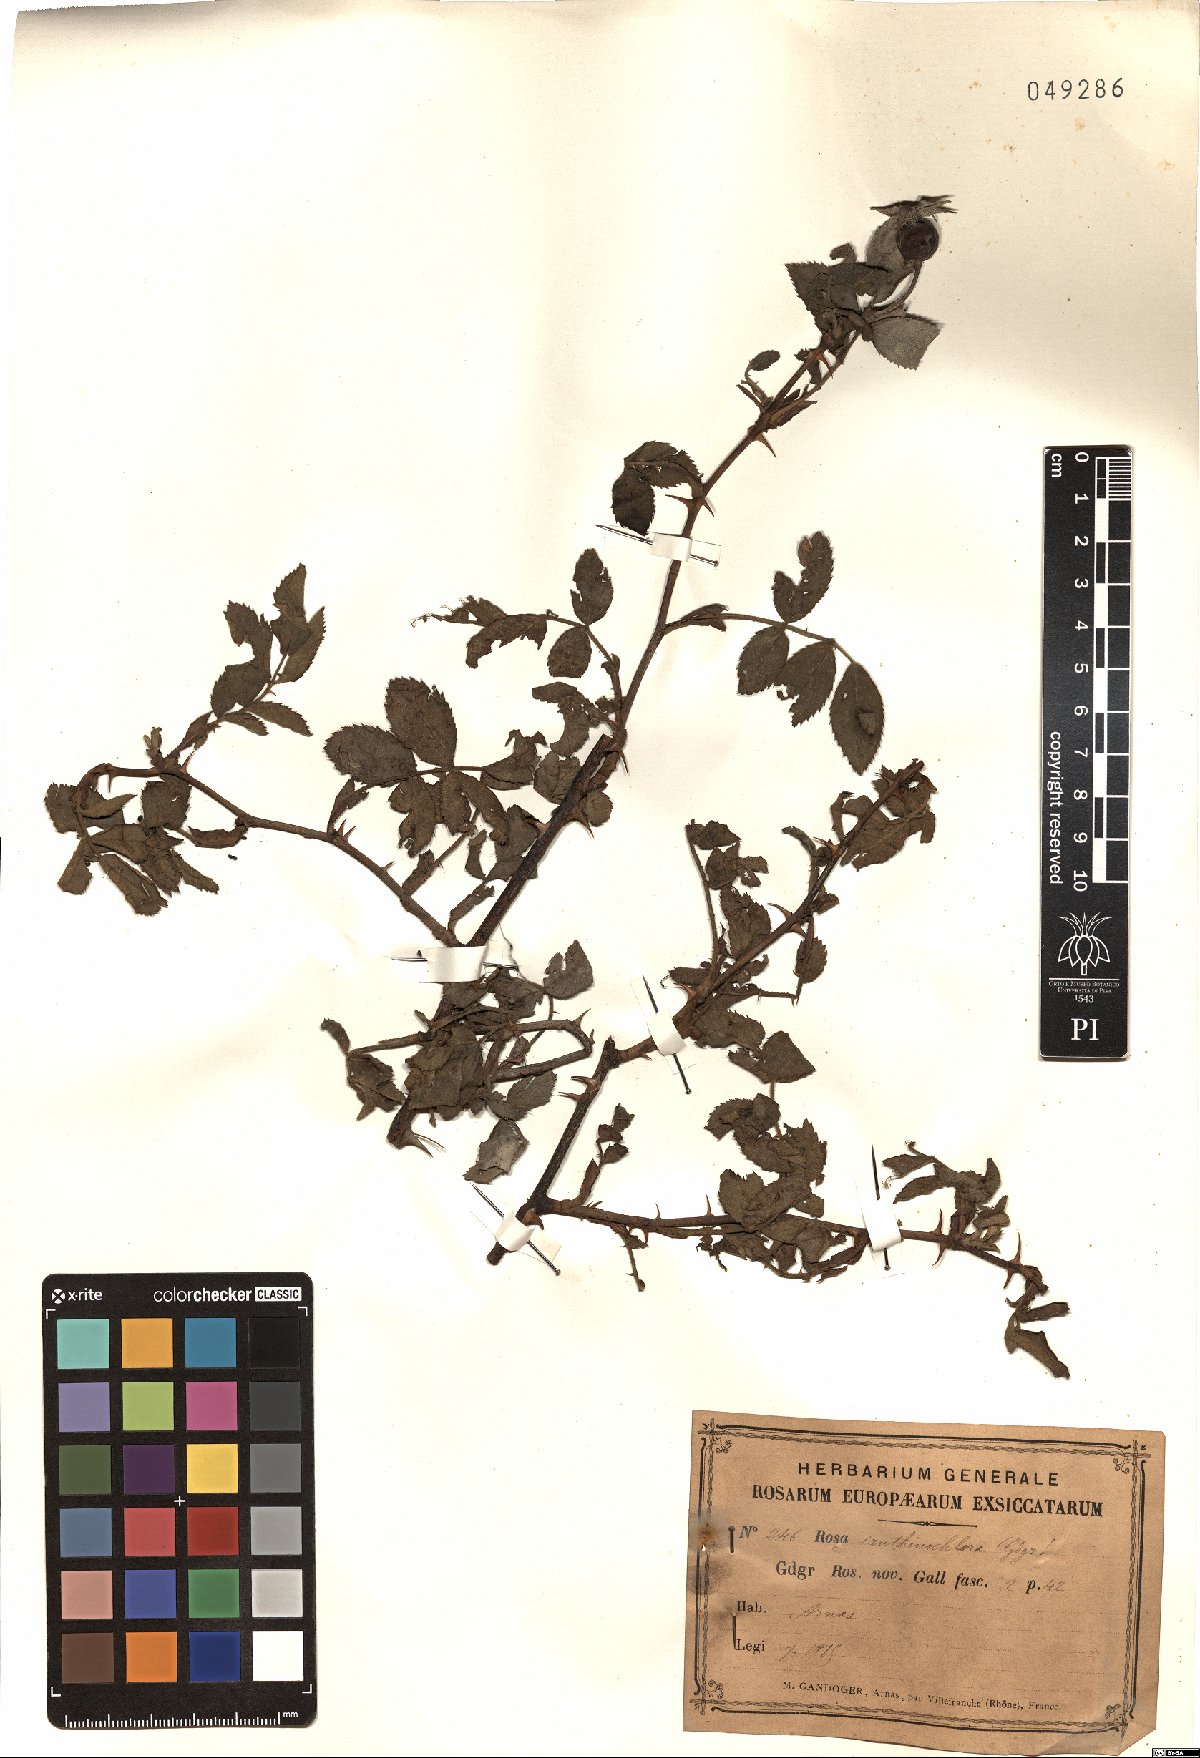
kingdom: Plantae
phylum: Tracheophyta
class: Magnoliopsida
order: Rosales
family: Rosaceae
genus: Rosa
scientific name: Rosa ianthinochlora
